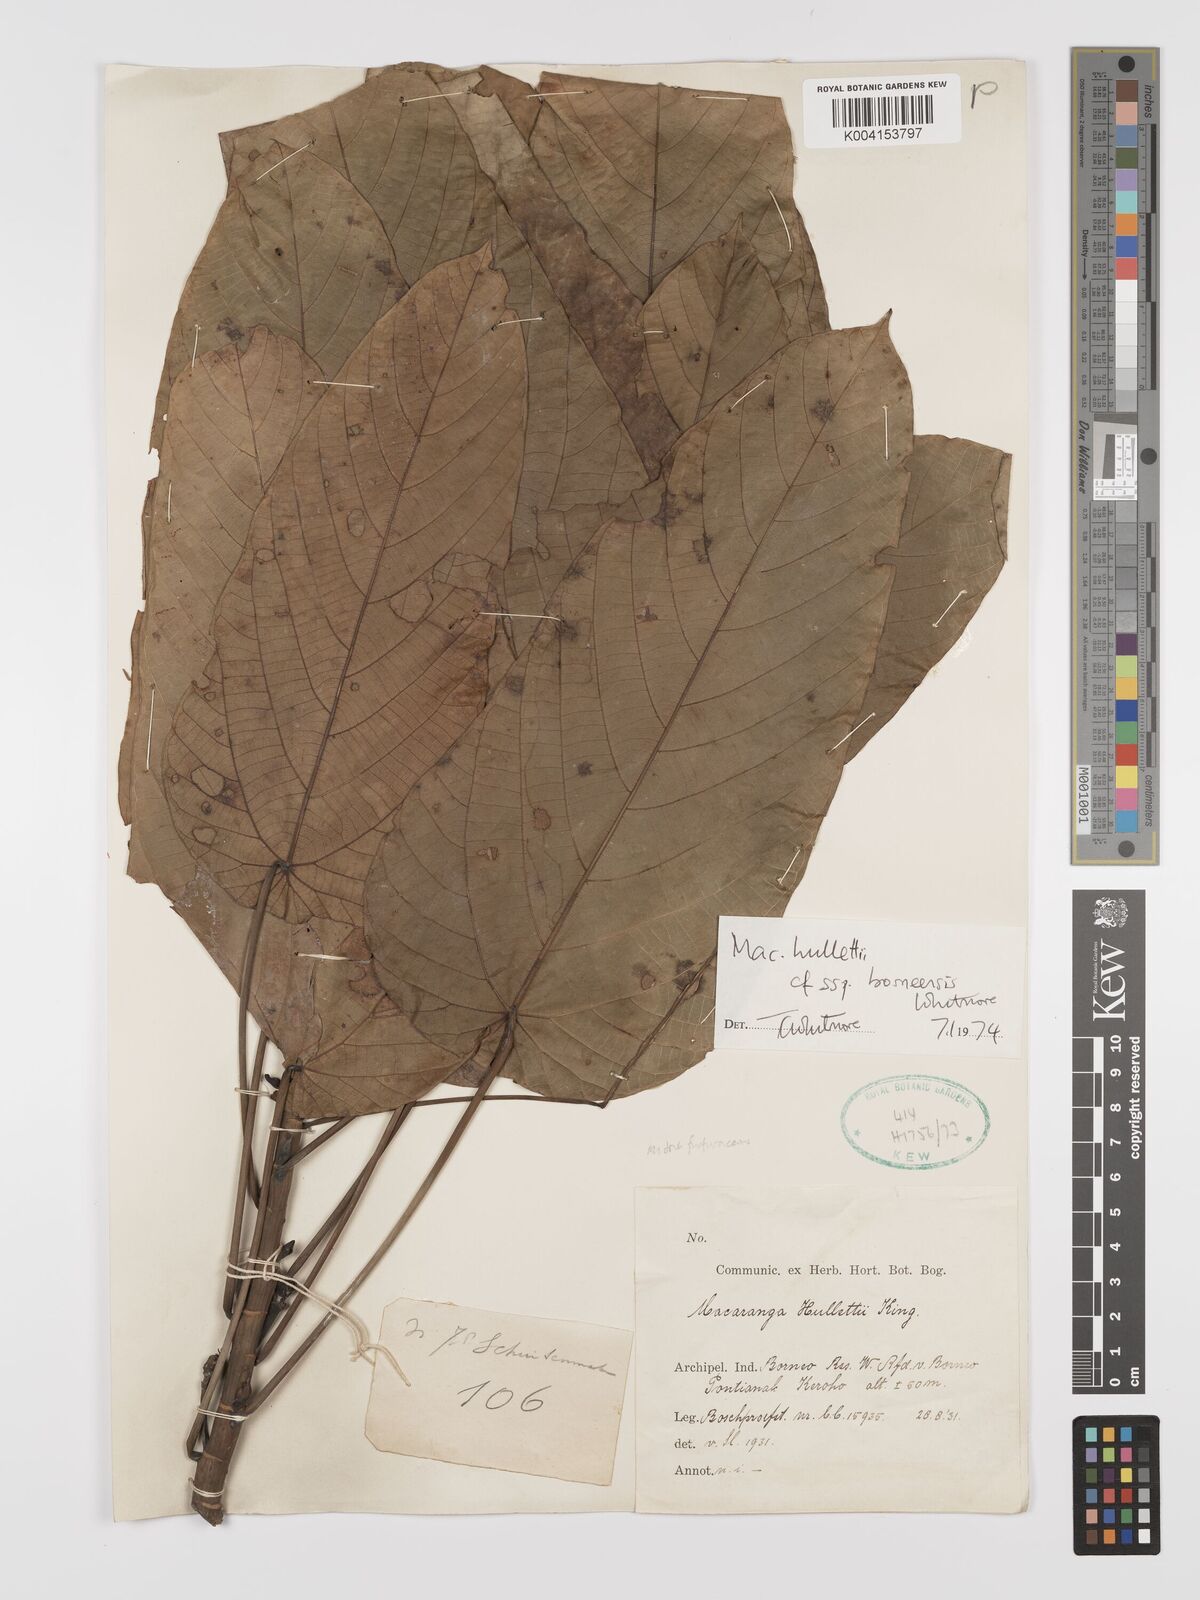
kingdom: Plantae
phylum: Tracheophyta
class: Magnoliopsida
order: Malpighiales
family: Euphorbiaceae
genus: Macaranga
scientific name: Macaranga hullettii
